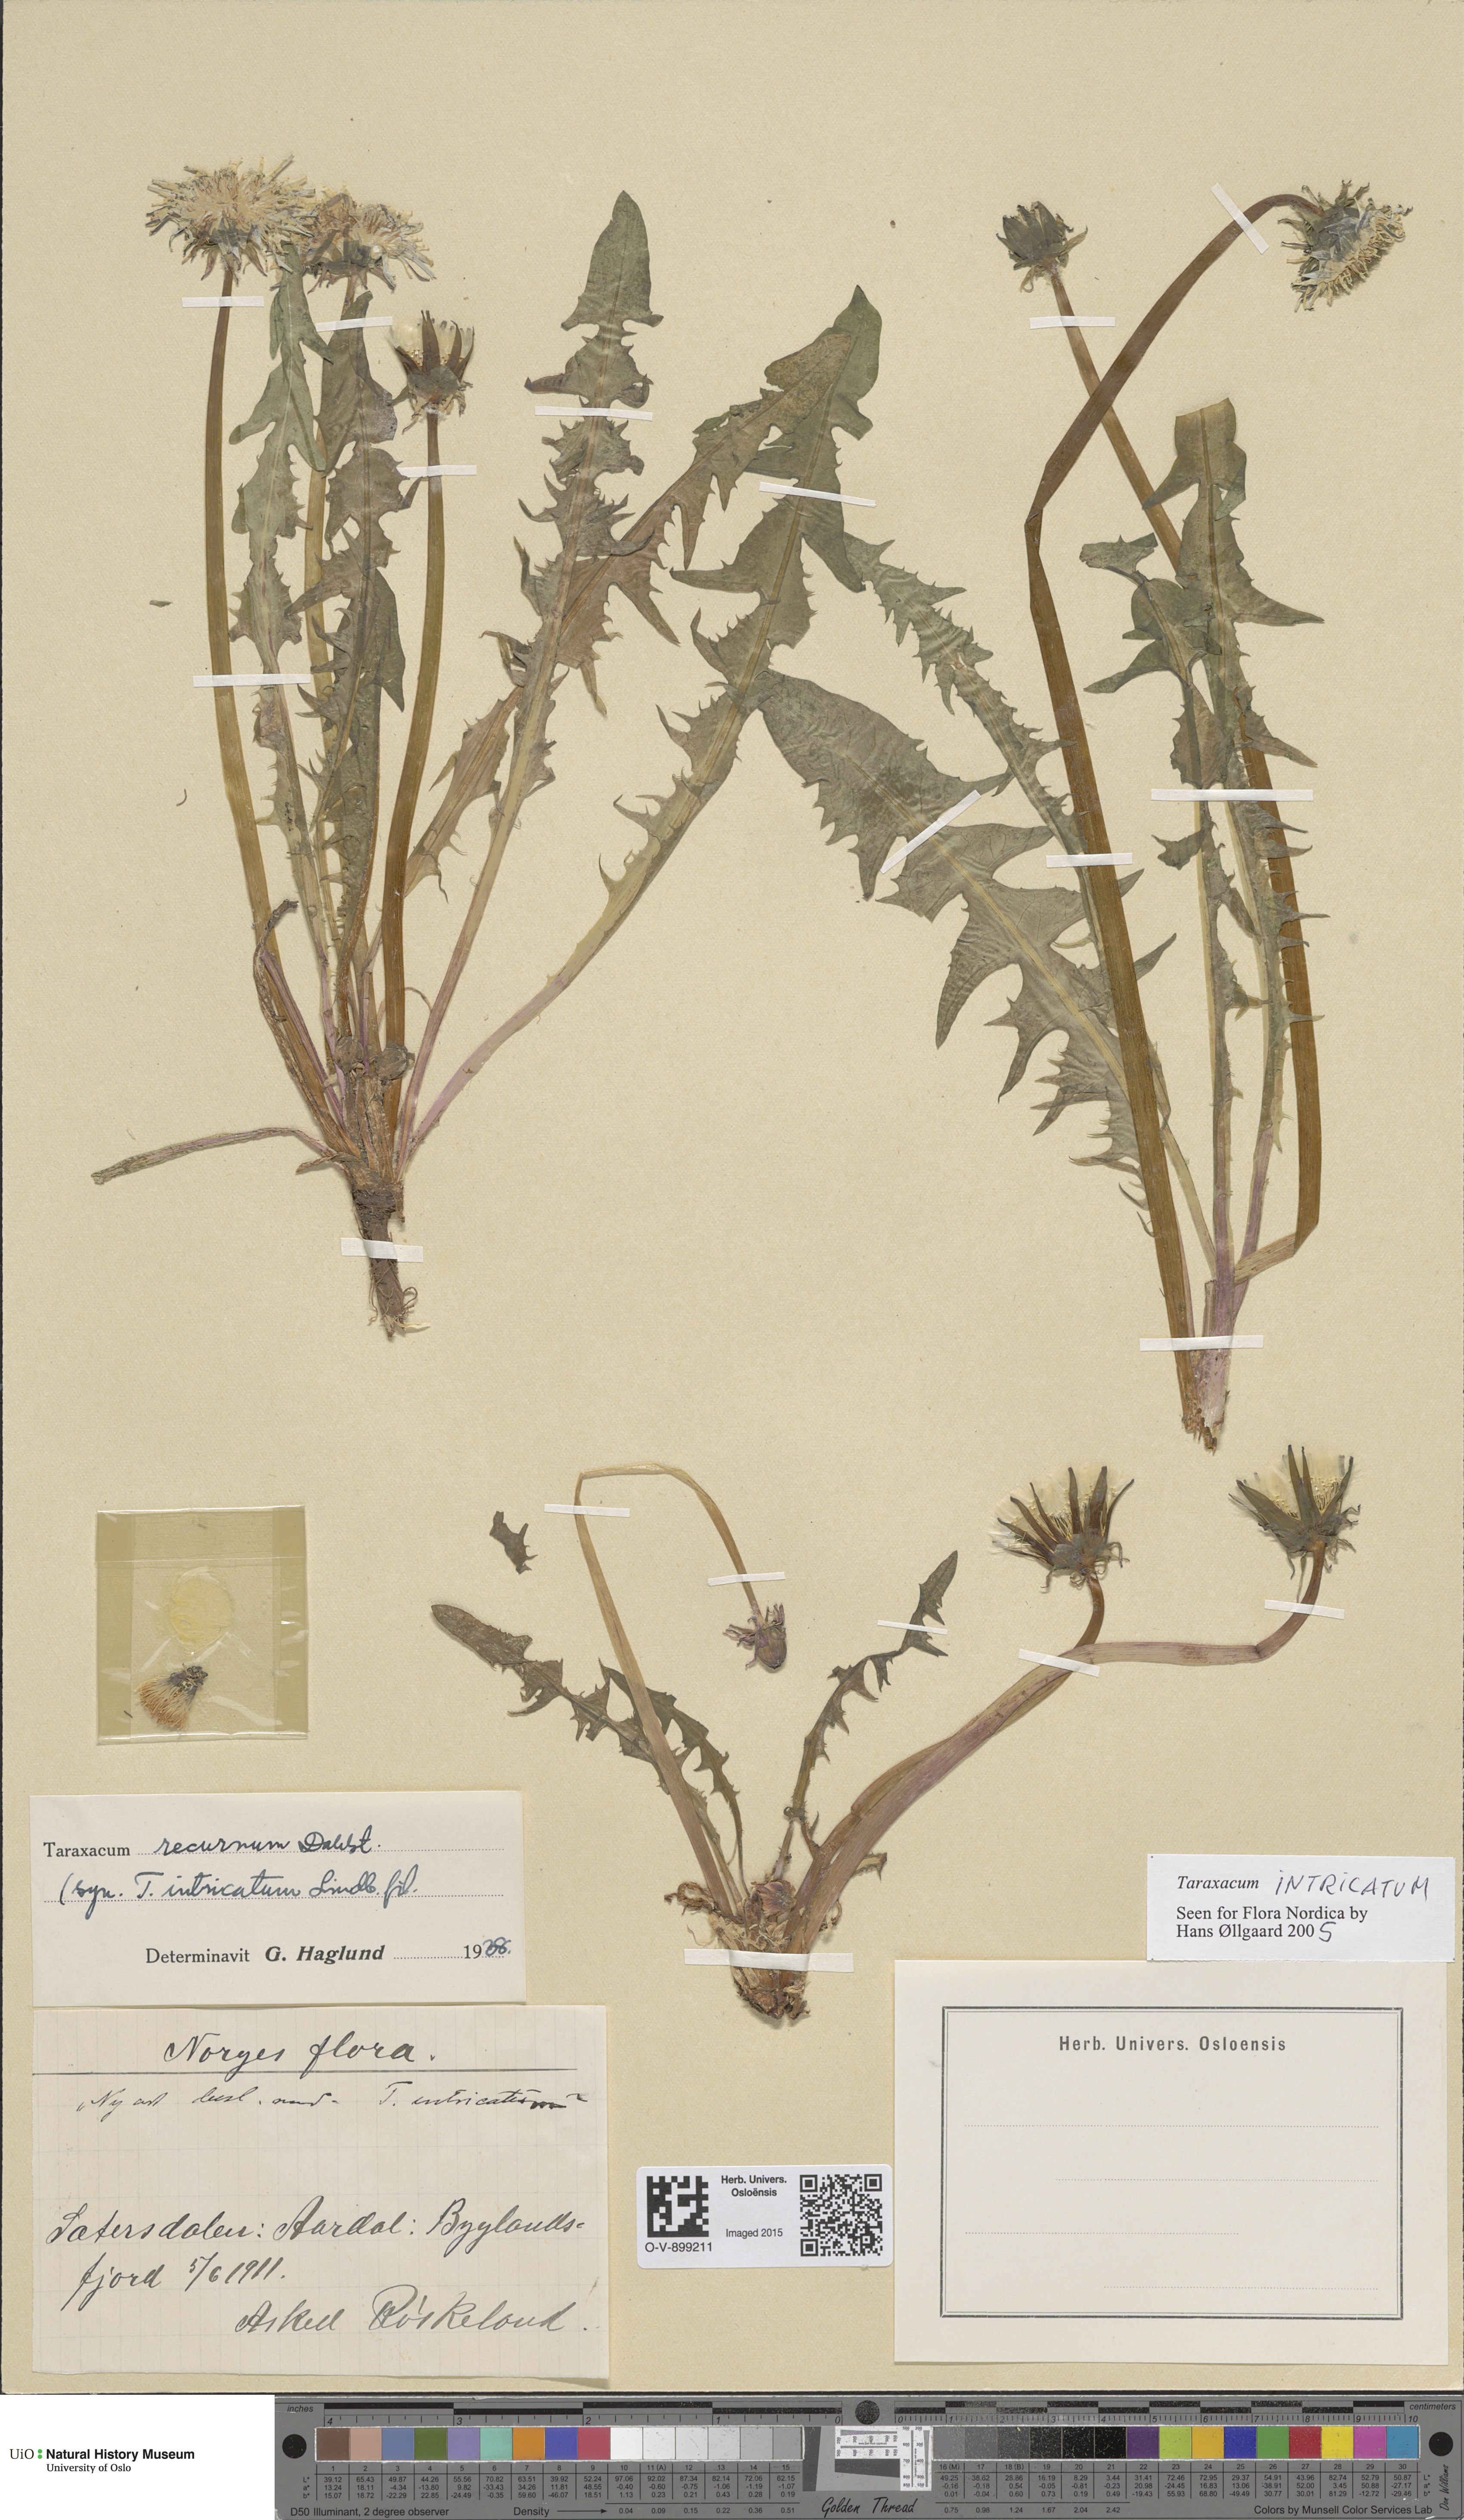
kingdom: Plantae
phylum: Tracheophyta
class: Magnoliopsida
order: Asterales
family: Asteraceae
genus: Taraxacum
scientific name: Taraxacum recurvum
